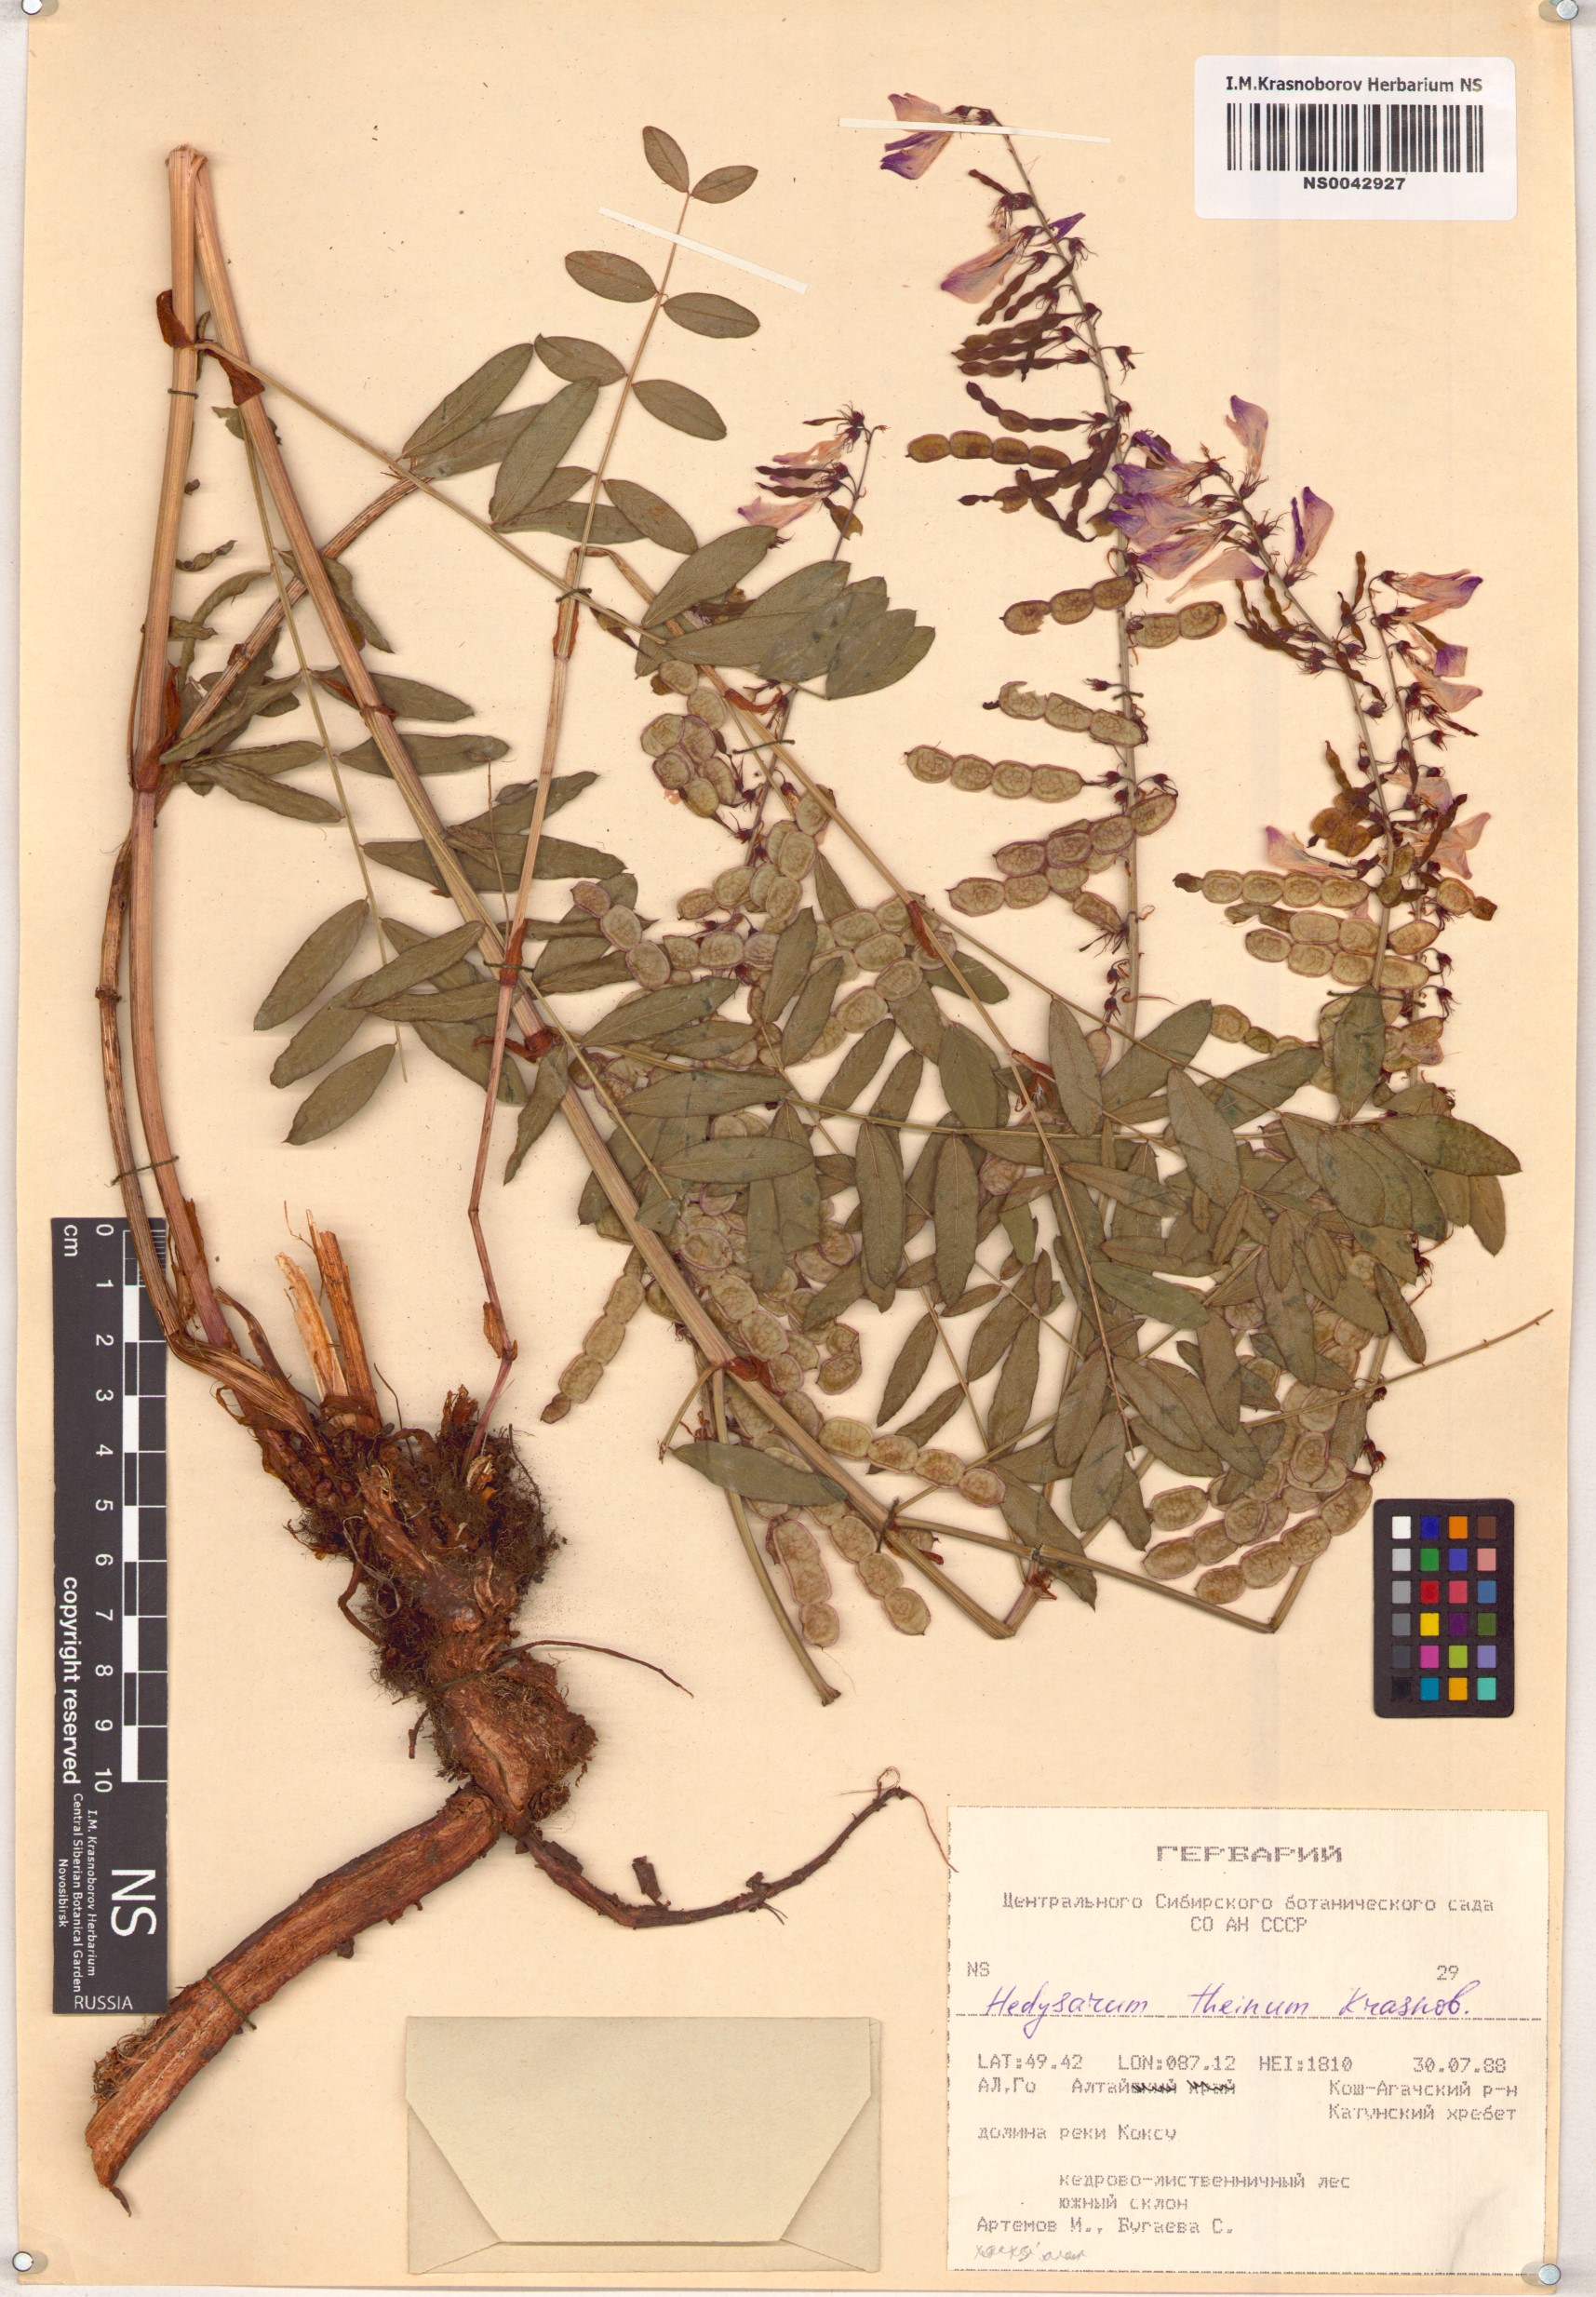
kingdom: Plantae
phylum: Tracheophyta
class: Magnoliopsida
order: Fabales
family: Fabaceae
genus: Hedysarum
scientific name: Hedysarum theinum
